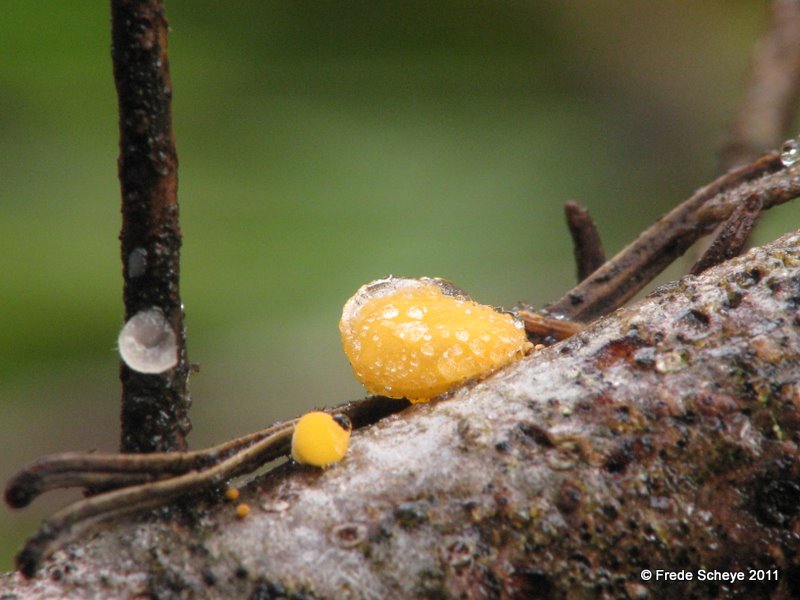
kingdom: Fungi
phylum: Ascomycota
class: Pezizomycetes
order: Pezizales
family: Sarcoscyphaceae
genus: Pithya
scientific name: Pithya vulgaris
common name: stor dukatbæger
